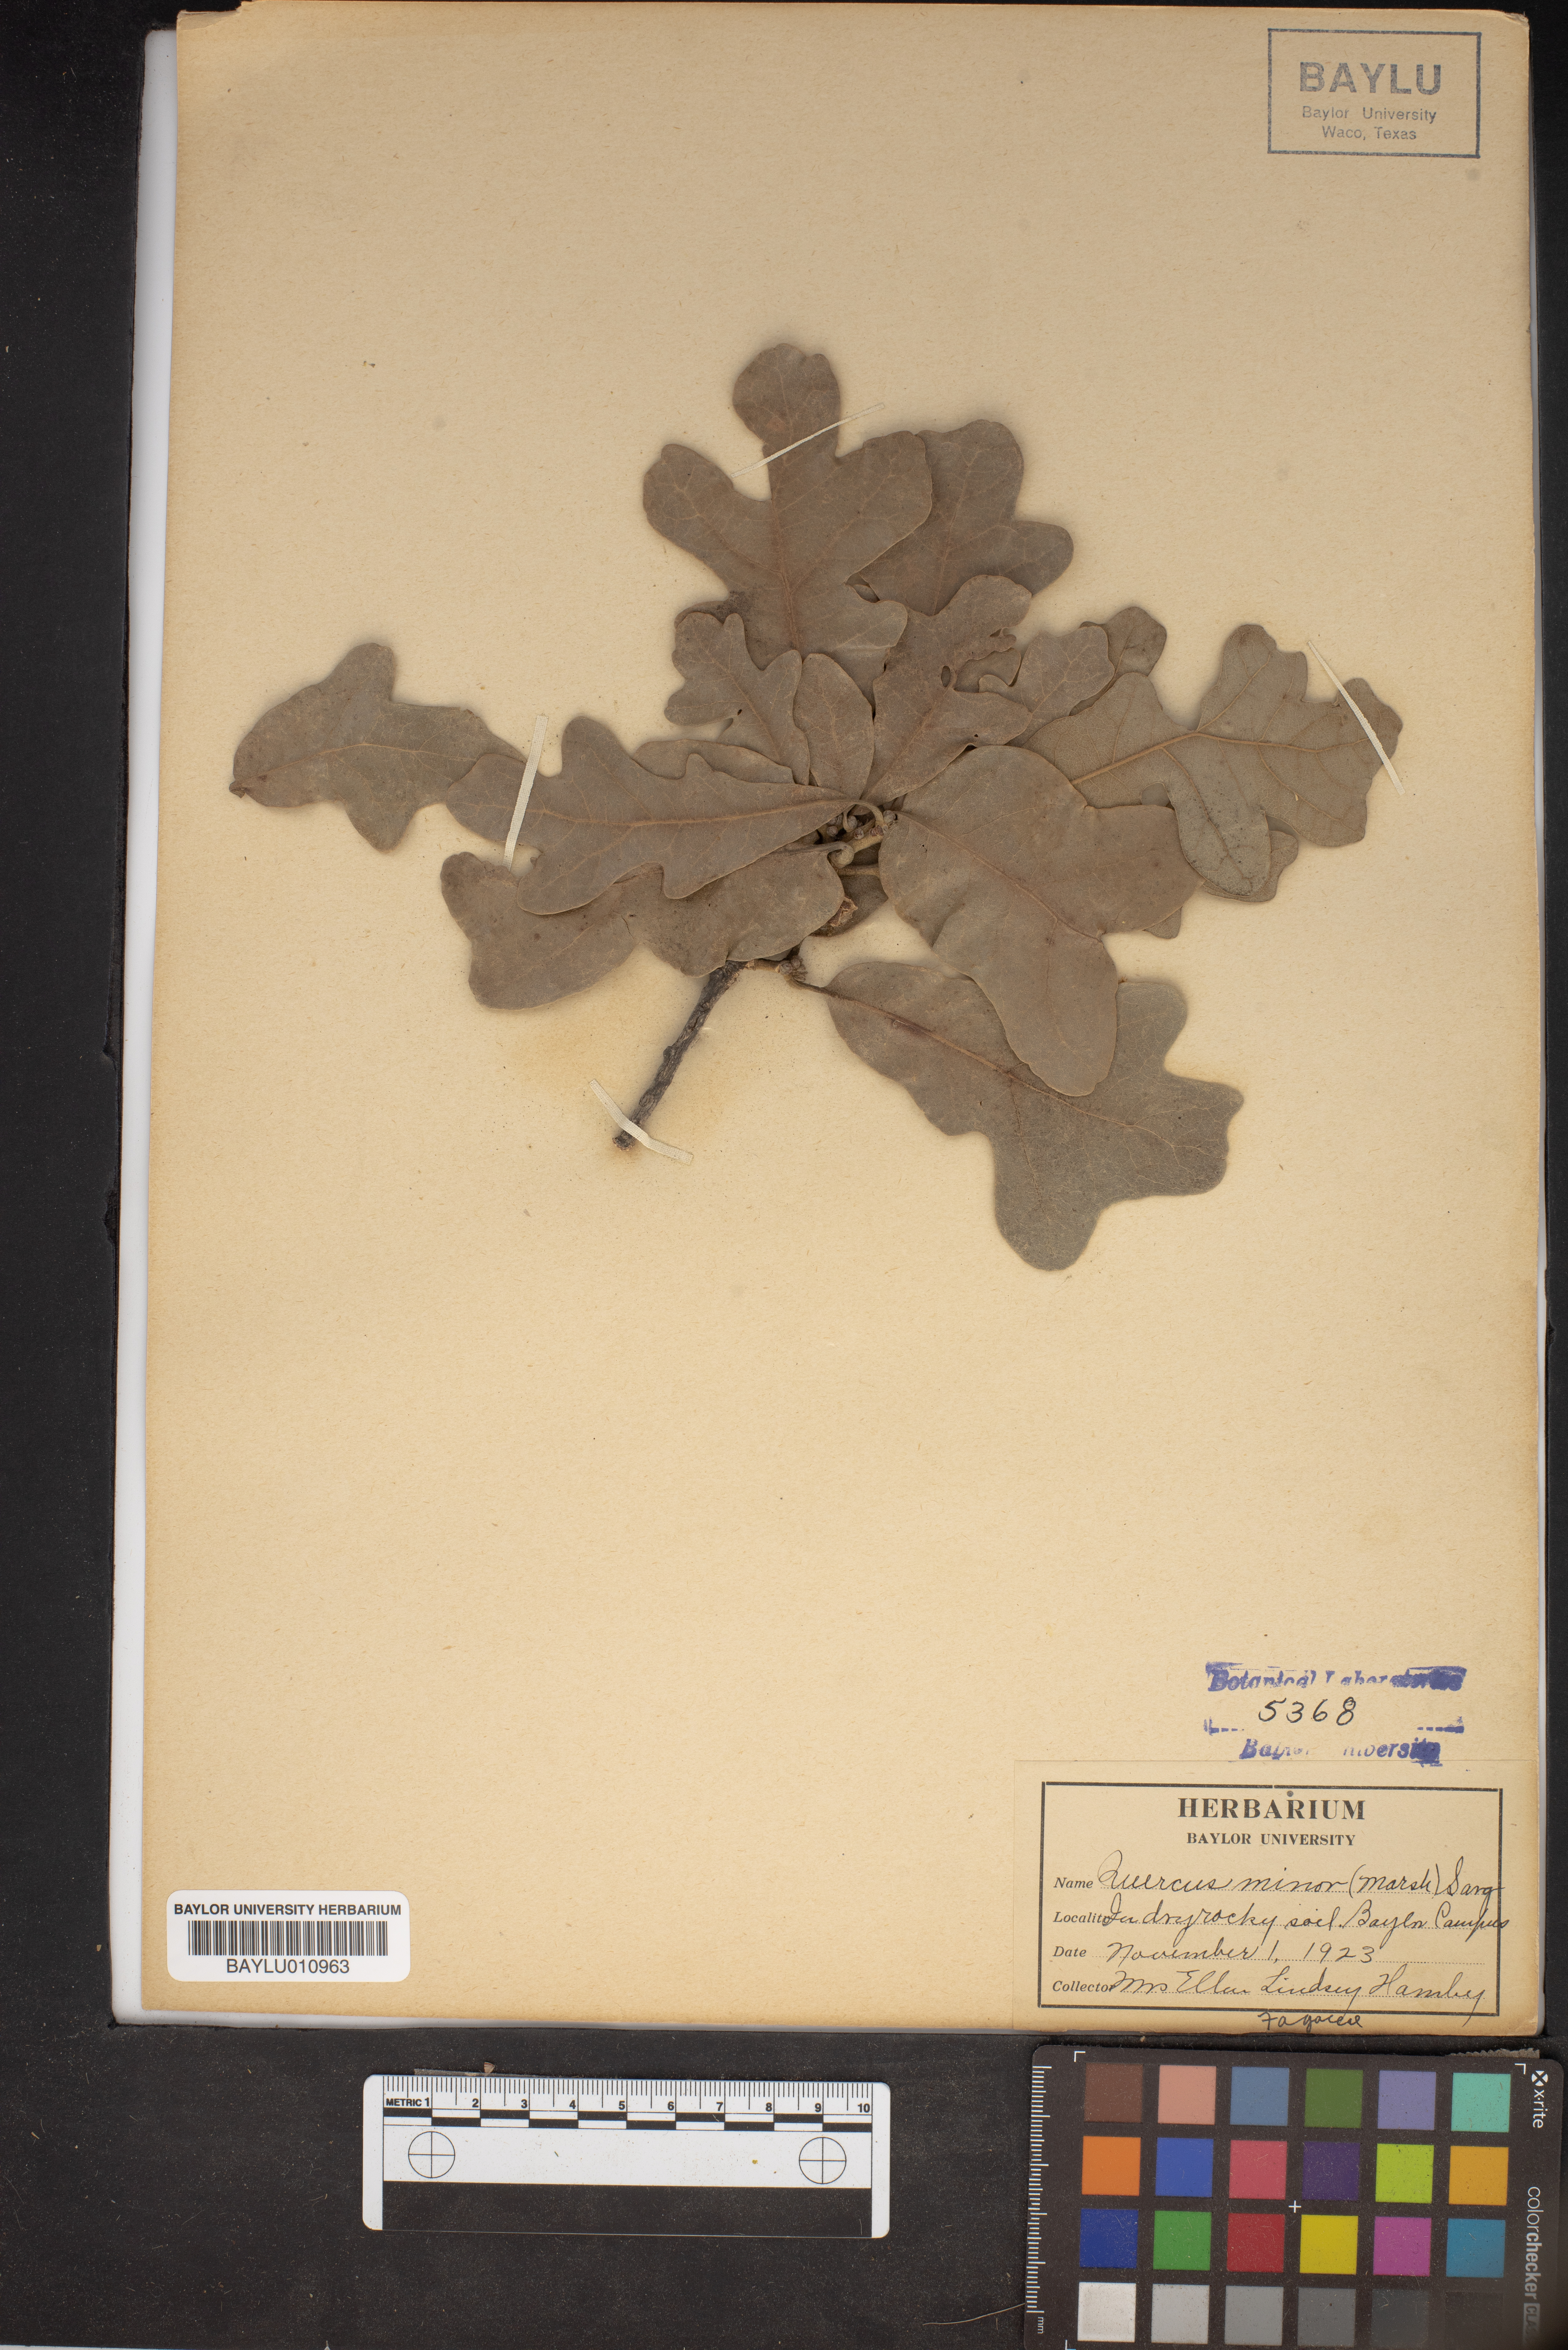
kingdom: Plantae
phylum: Tracheophyta
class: Magnoliopsida
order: Fagales
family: Fagaceae
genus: Quercus
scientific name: Quercus stellata
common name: Post oak
